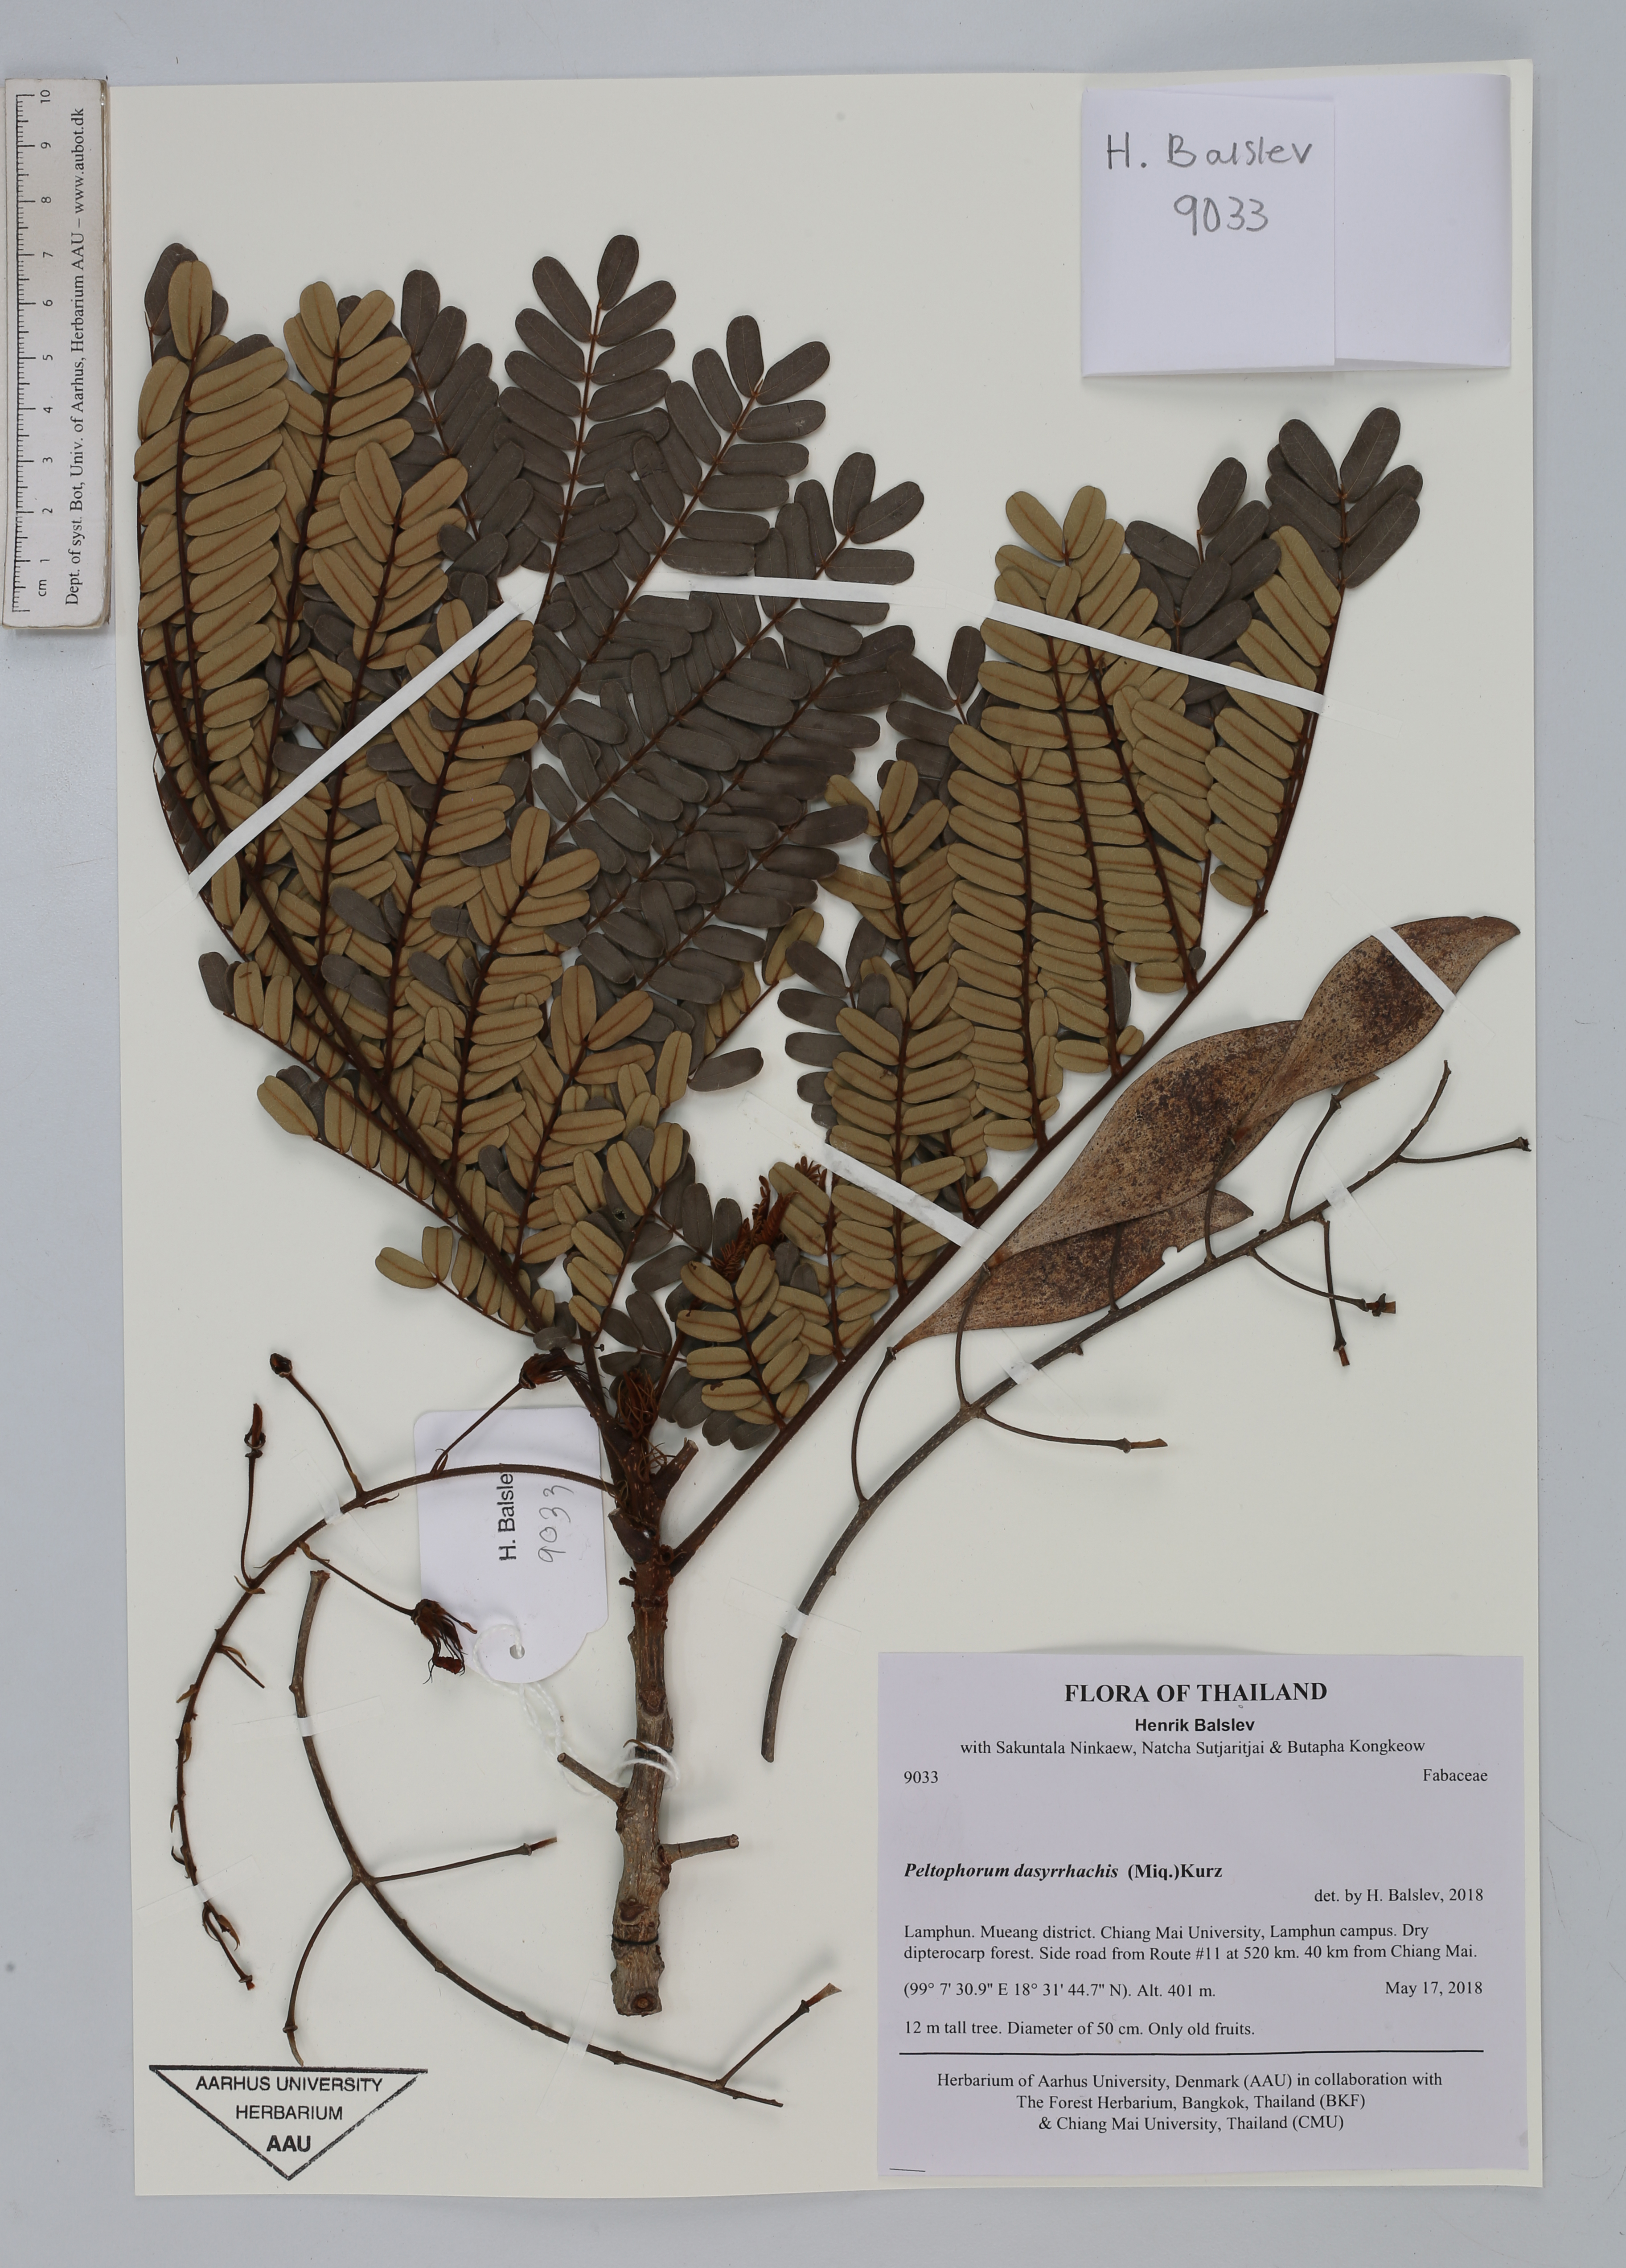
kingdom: Plantae
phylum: Tracheophyta
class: Magnoliopsida
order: Fabales
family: Fabaceae
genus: Peltophorum
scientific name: Peltophorum dasyrhachis
